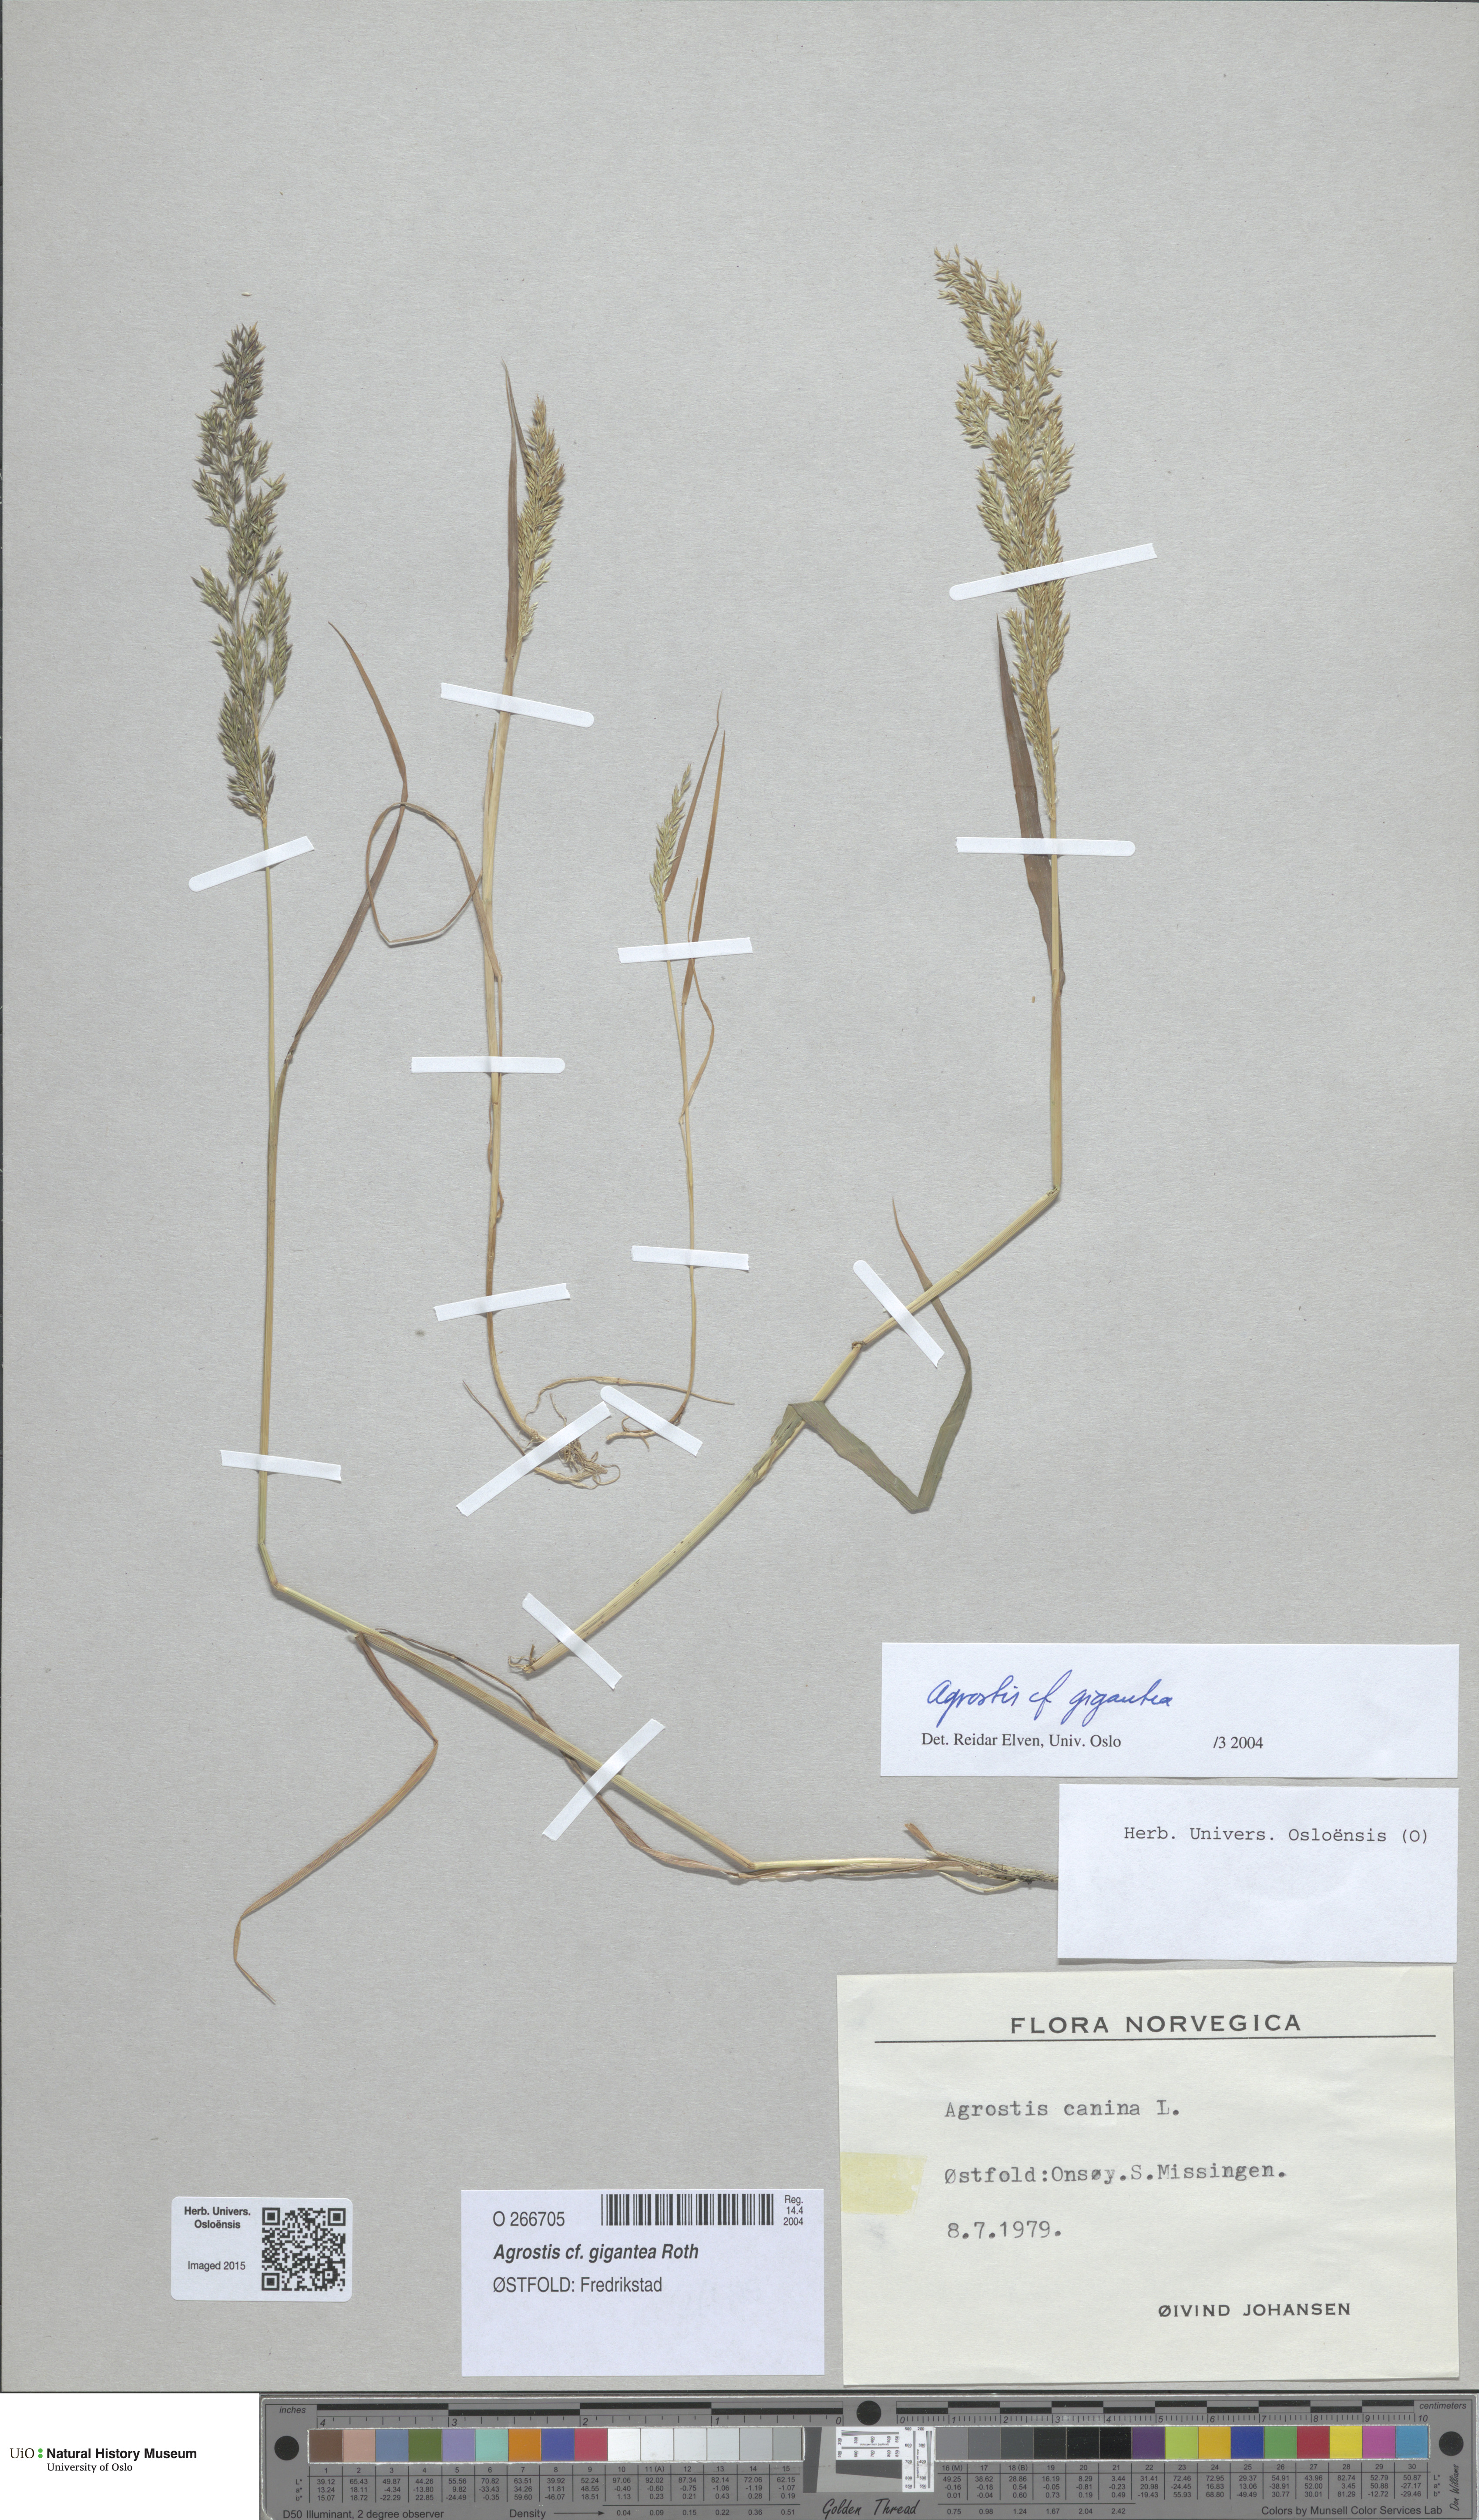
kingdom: Plantae
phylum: Tracheophyta
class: Liliopsida
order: Poales
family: Poaceae
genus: Agrostis
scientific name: Agrostis gigantea
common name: Black bent
